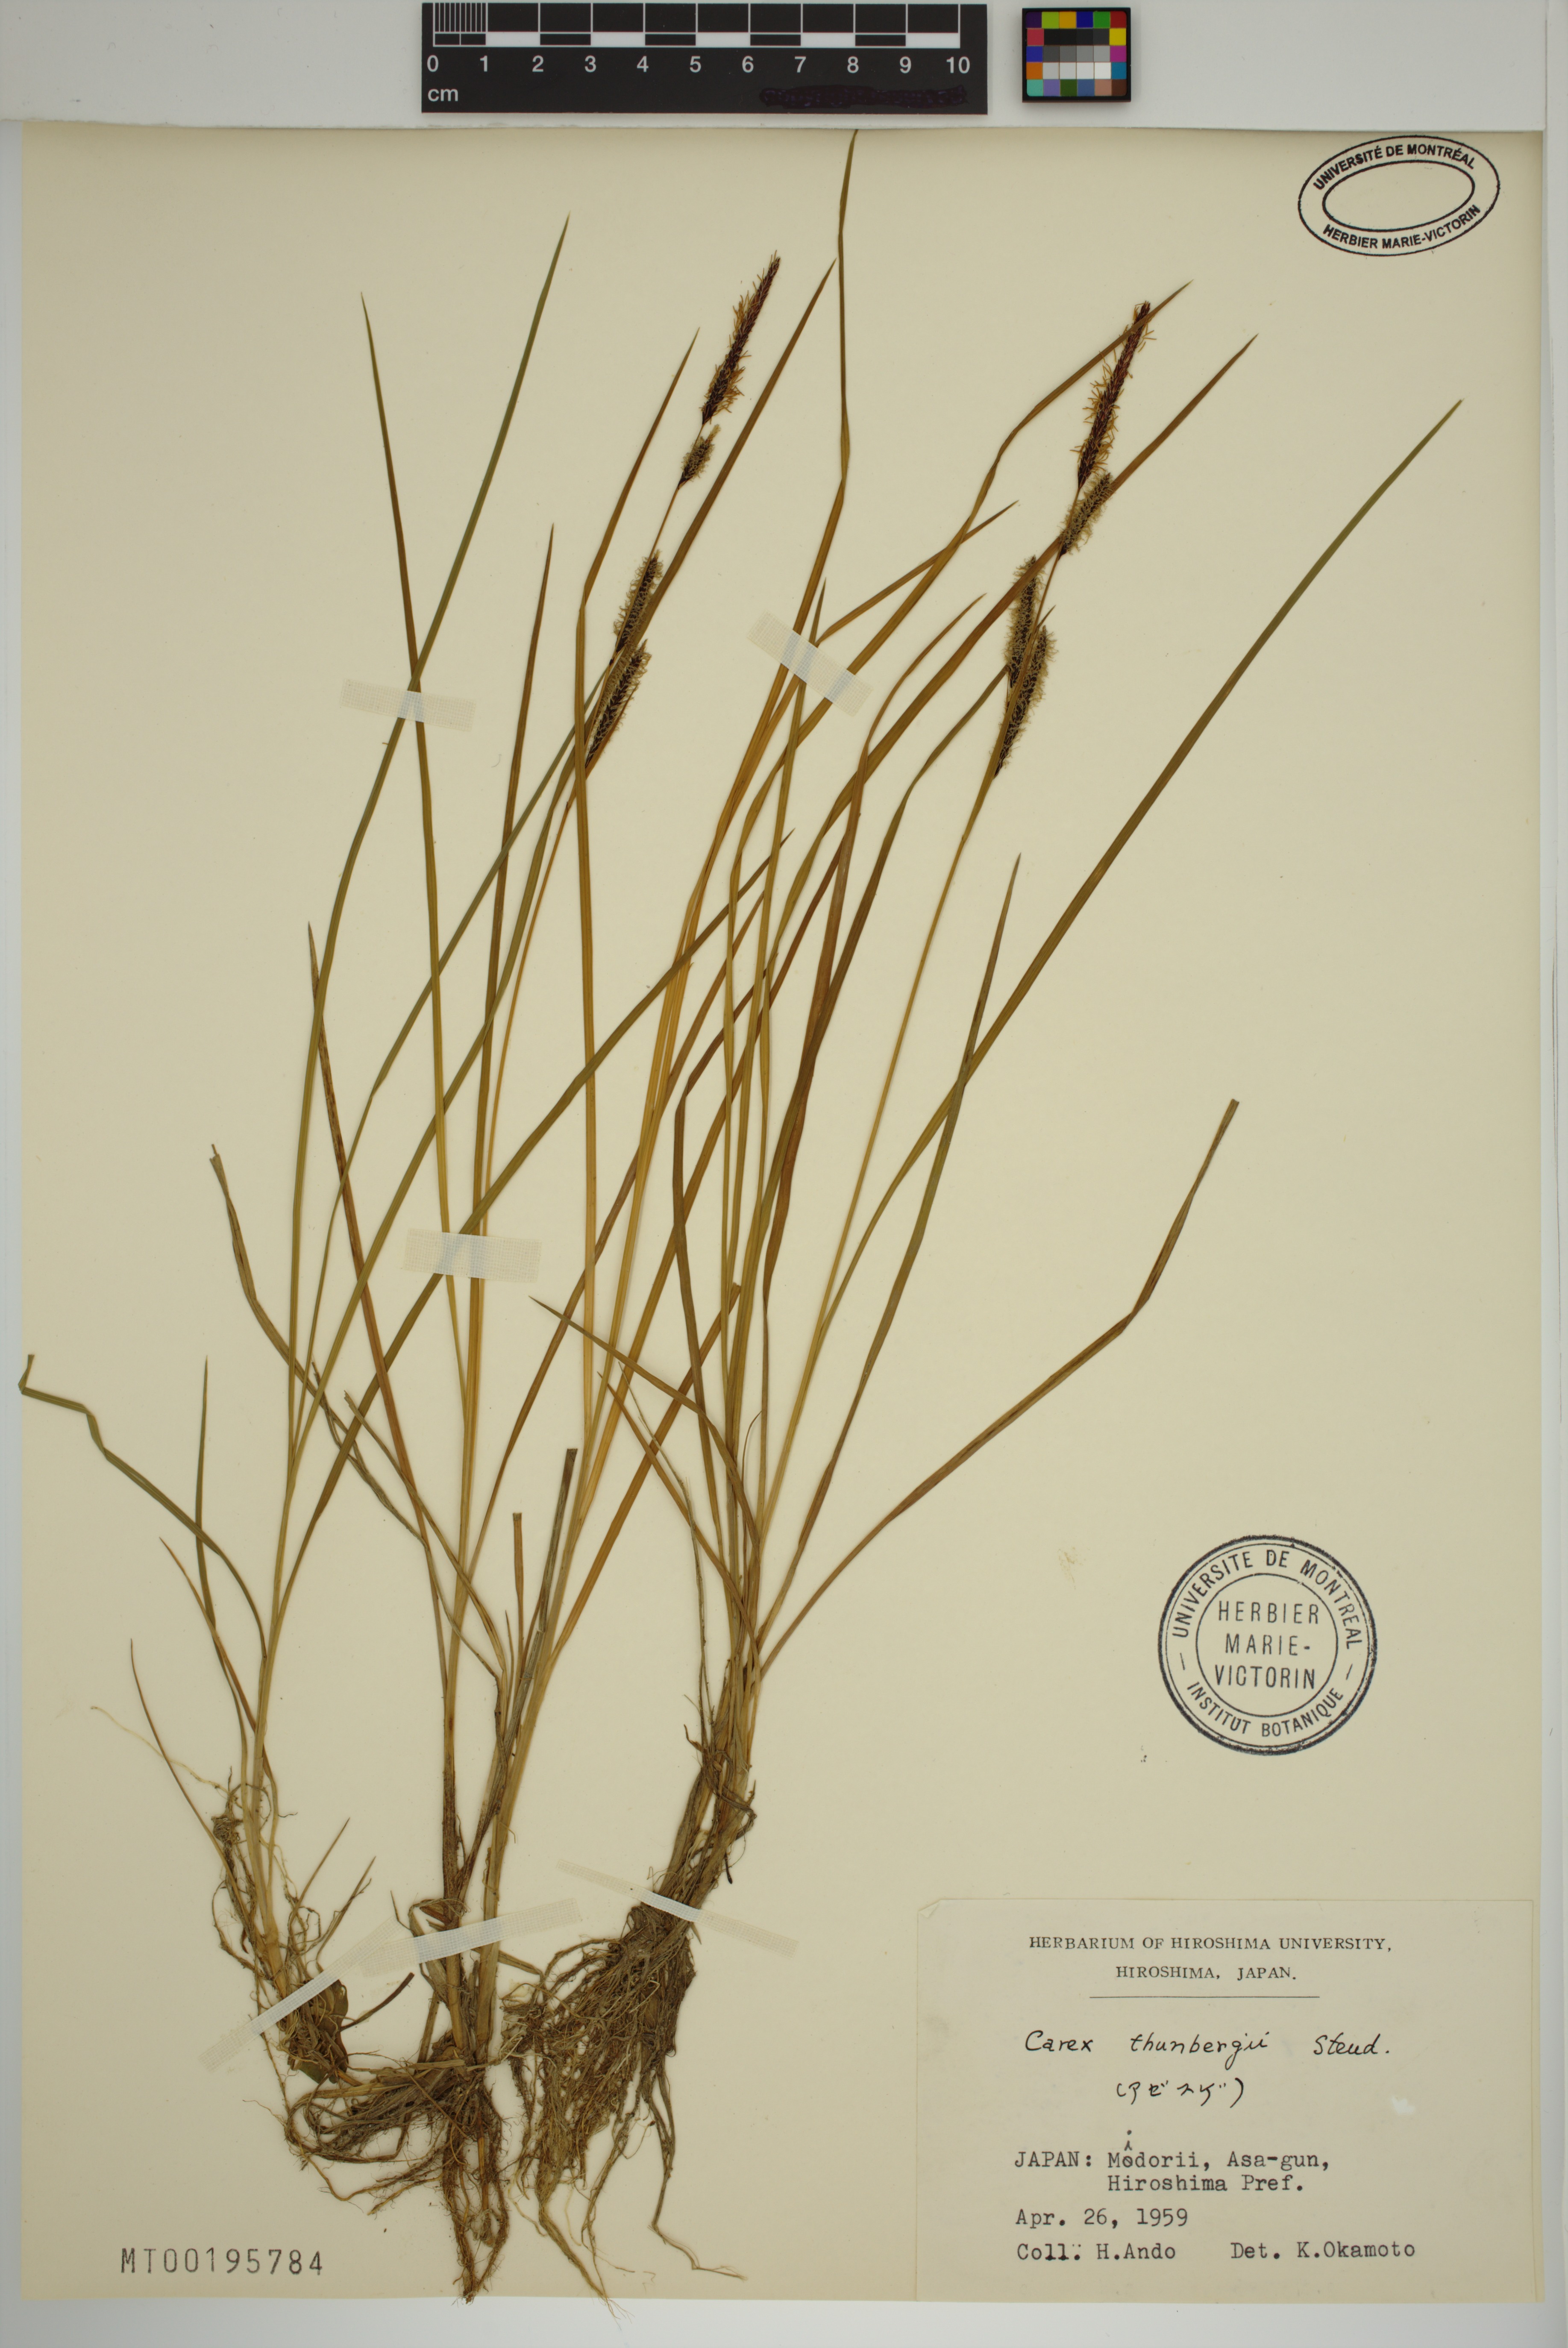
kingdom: Plantae
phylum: Tracheophyta
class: Liliopsida
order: Poales
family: Cyperaceae
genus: Carex
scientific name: Carex thunbergii
